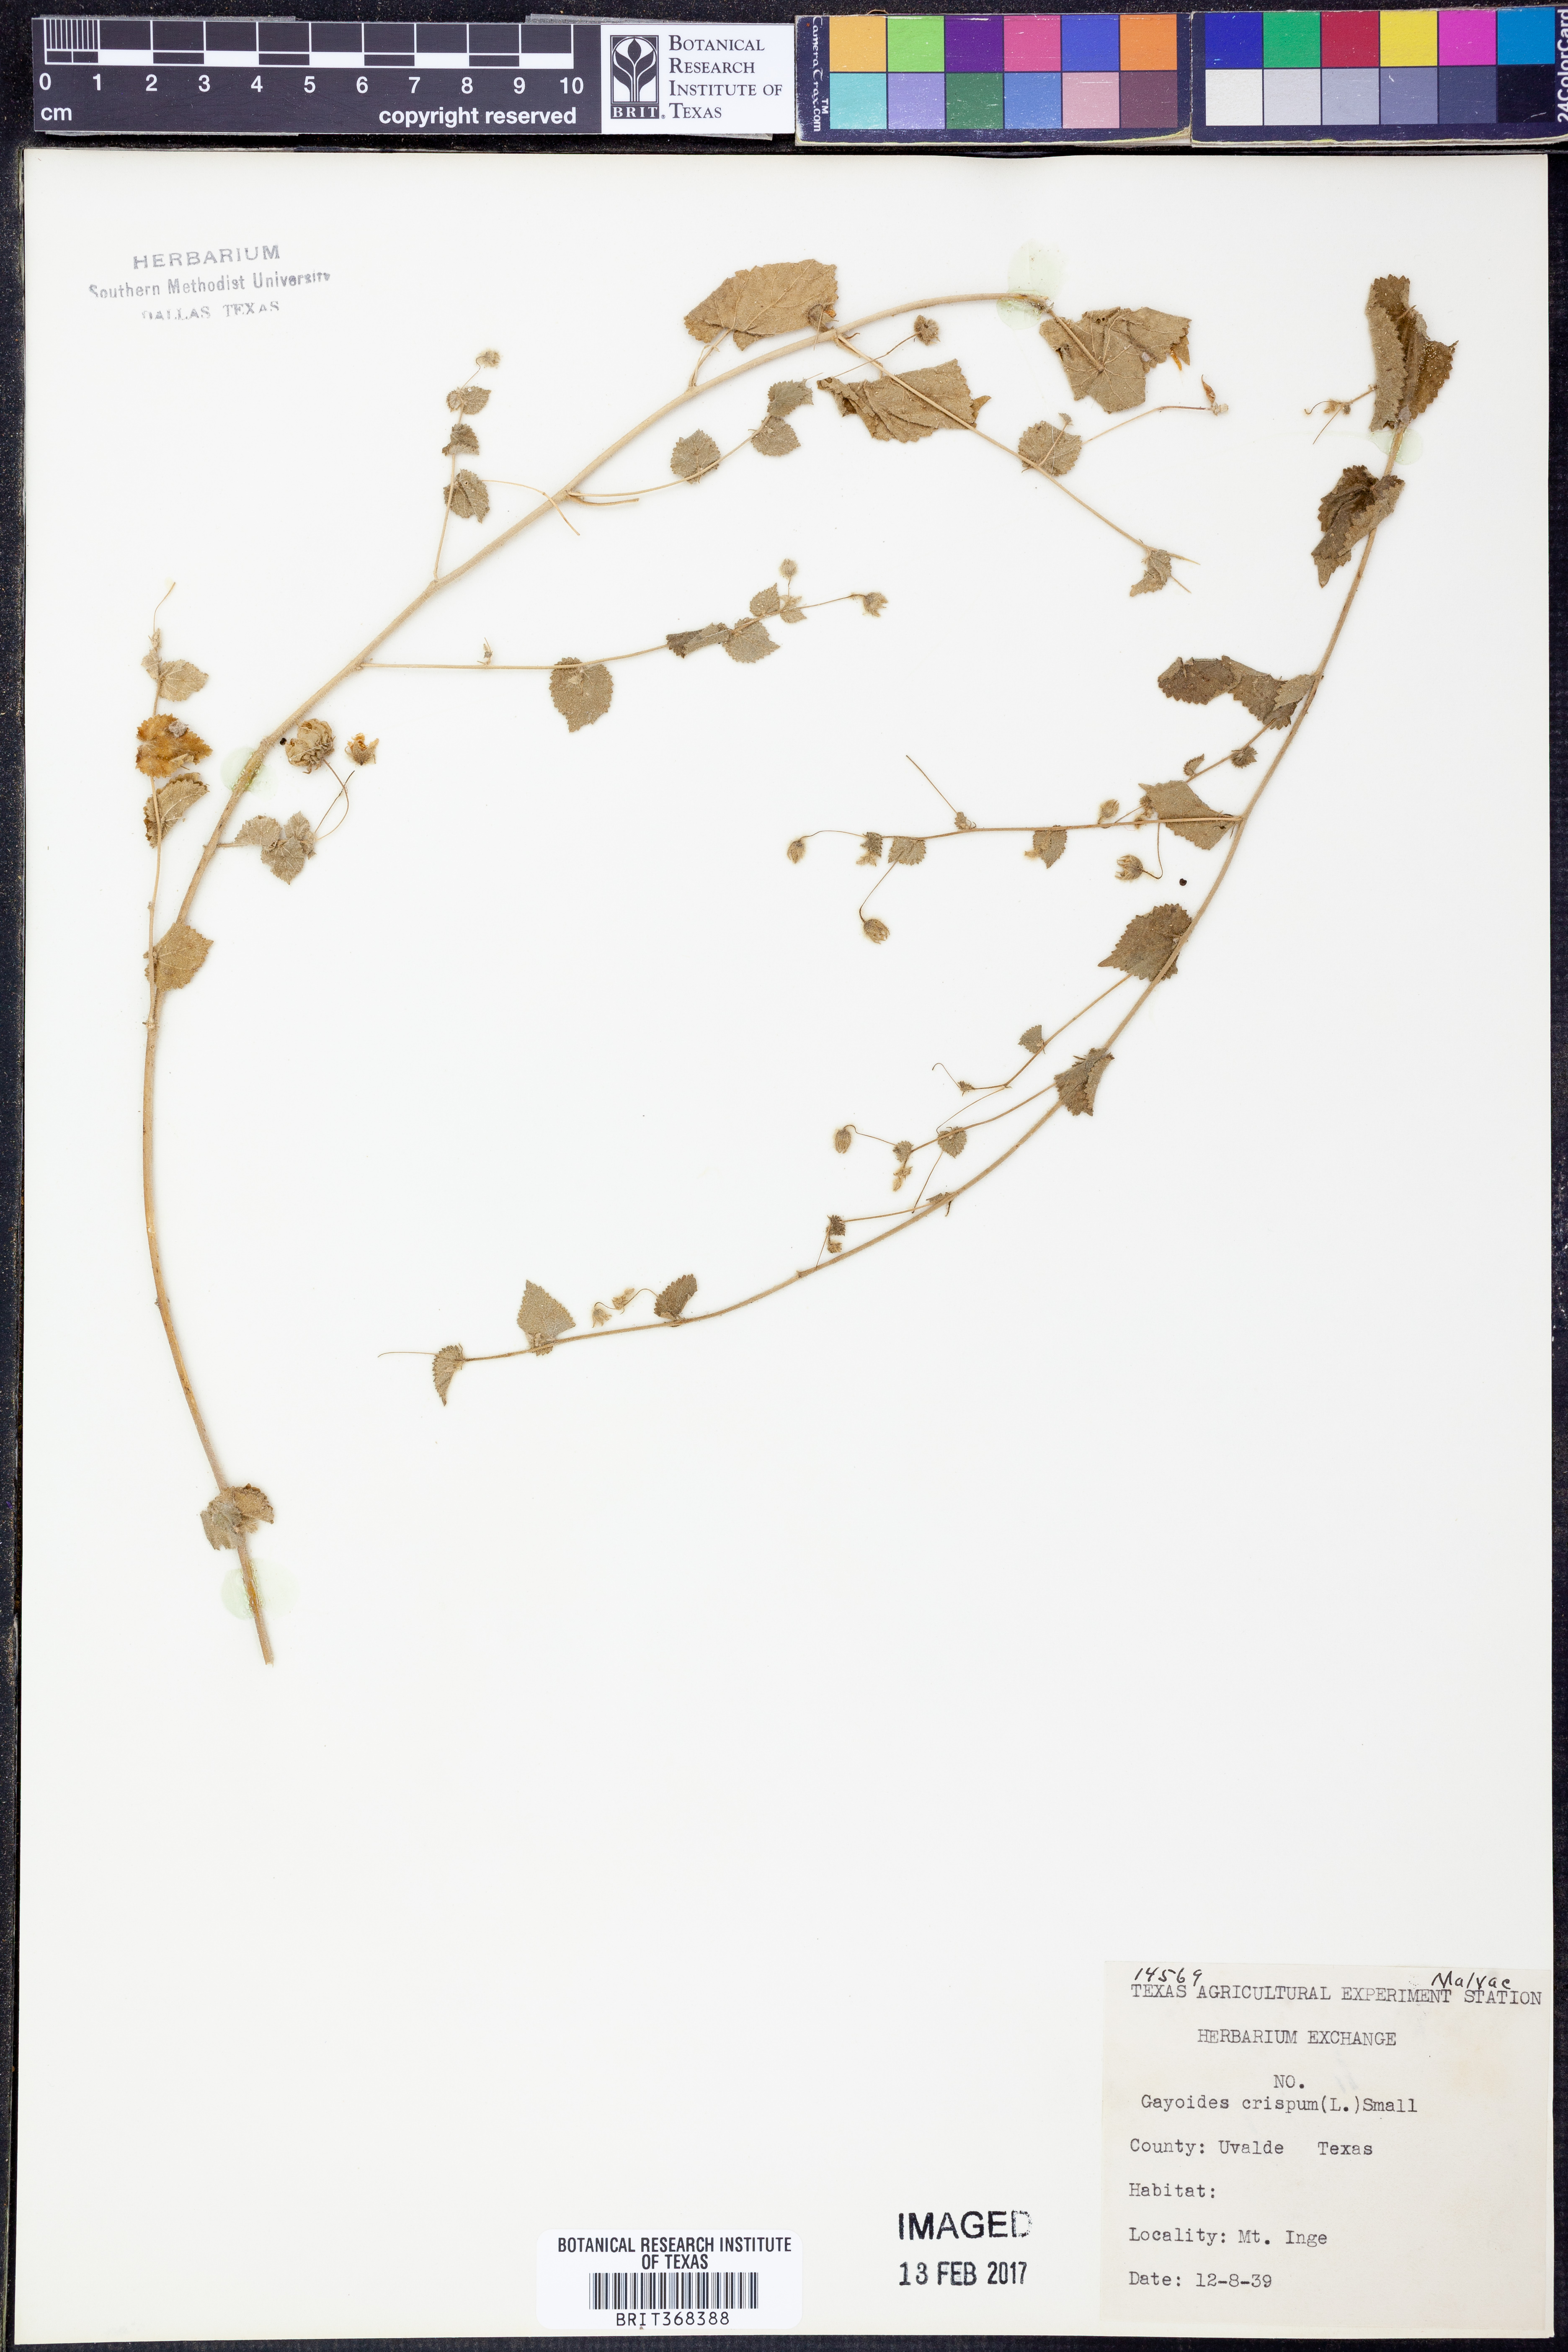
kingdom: Plantae
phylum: Tracheophyta
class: Magnoliopsida
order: Malvales
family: Malvaceae
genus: Herissantia
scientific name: Herissantia crispa
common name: Bladdermallow
